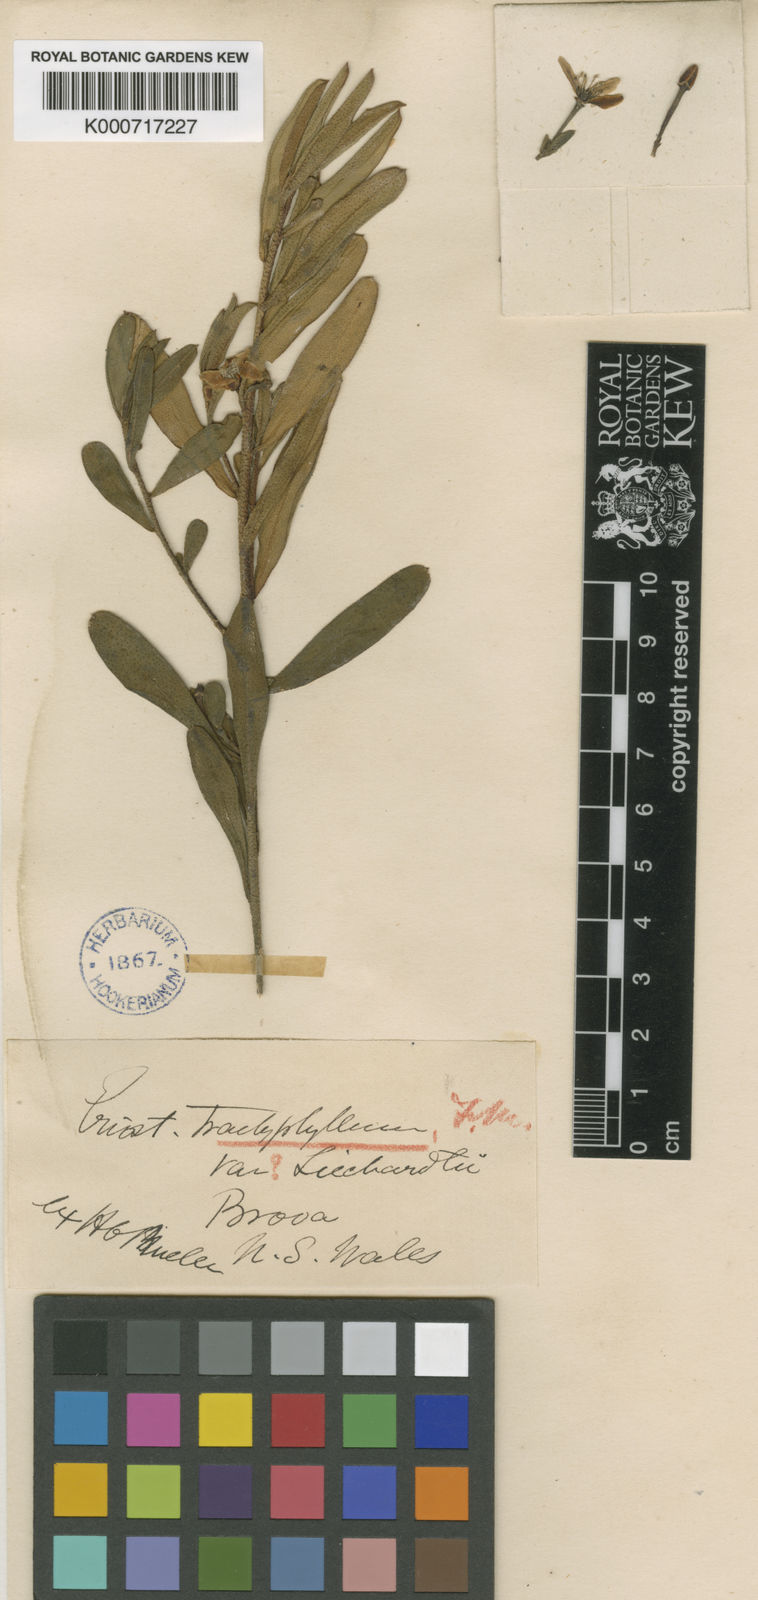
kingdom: Plantae
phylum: Tracheophyta
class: Magnoliopsida
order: Sapindales
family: Rutaceae
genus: Philotheca
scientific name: Philotheca trachyphylla
